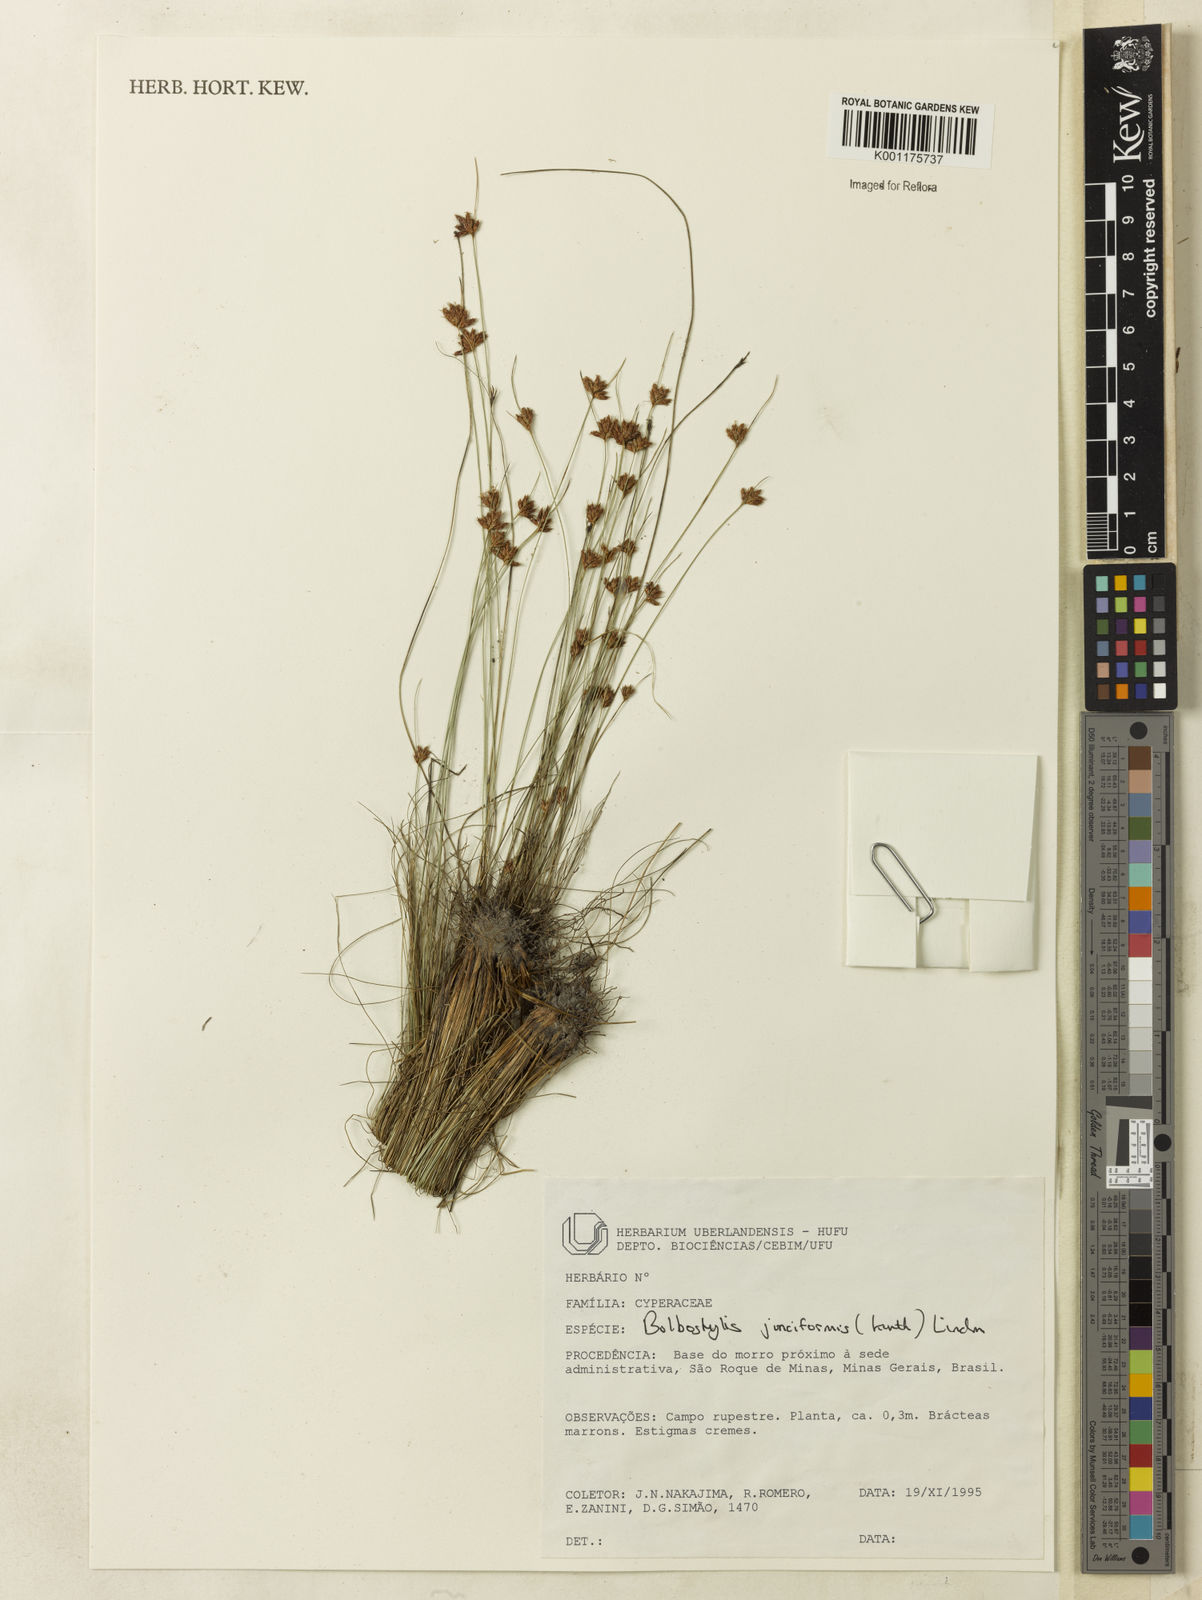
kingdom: Plantae
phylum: Tracheophyta
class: Liliopsida
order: Poales
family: Cyperaceae
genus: Bulbostylis
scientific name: Bulbostylis junciformis
